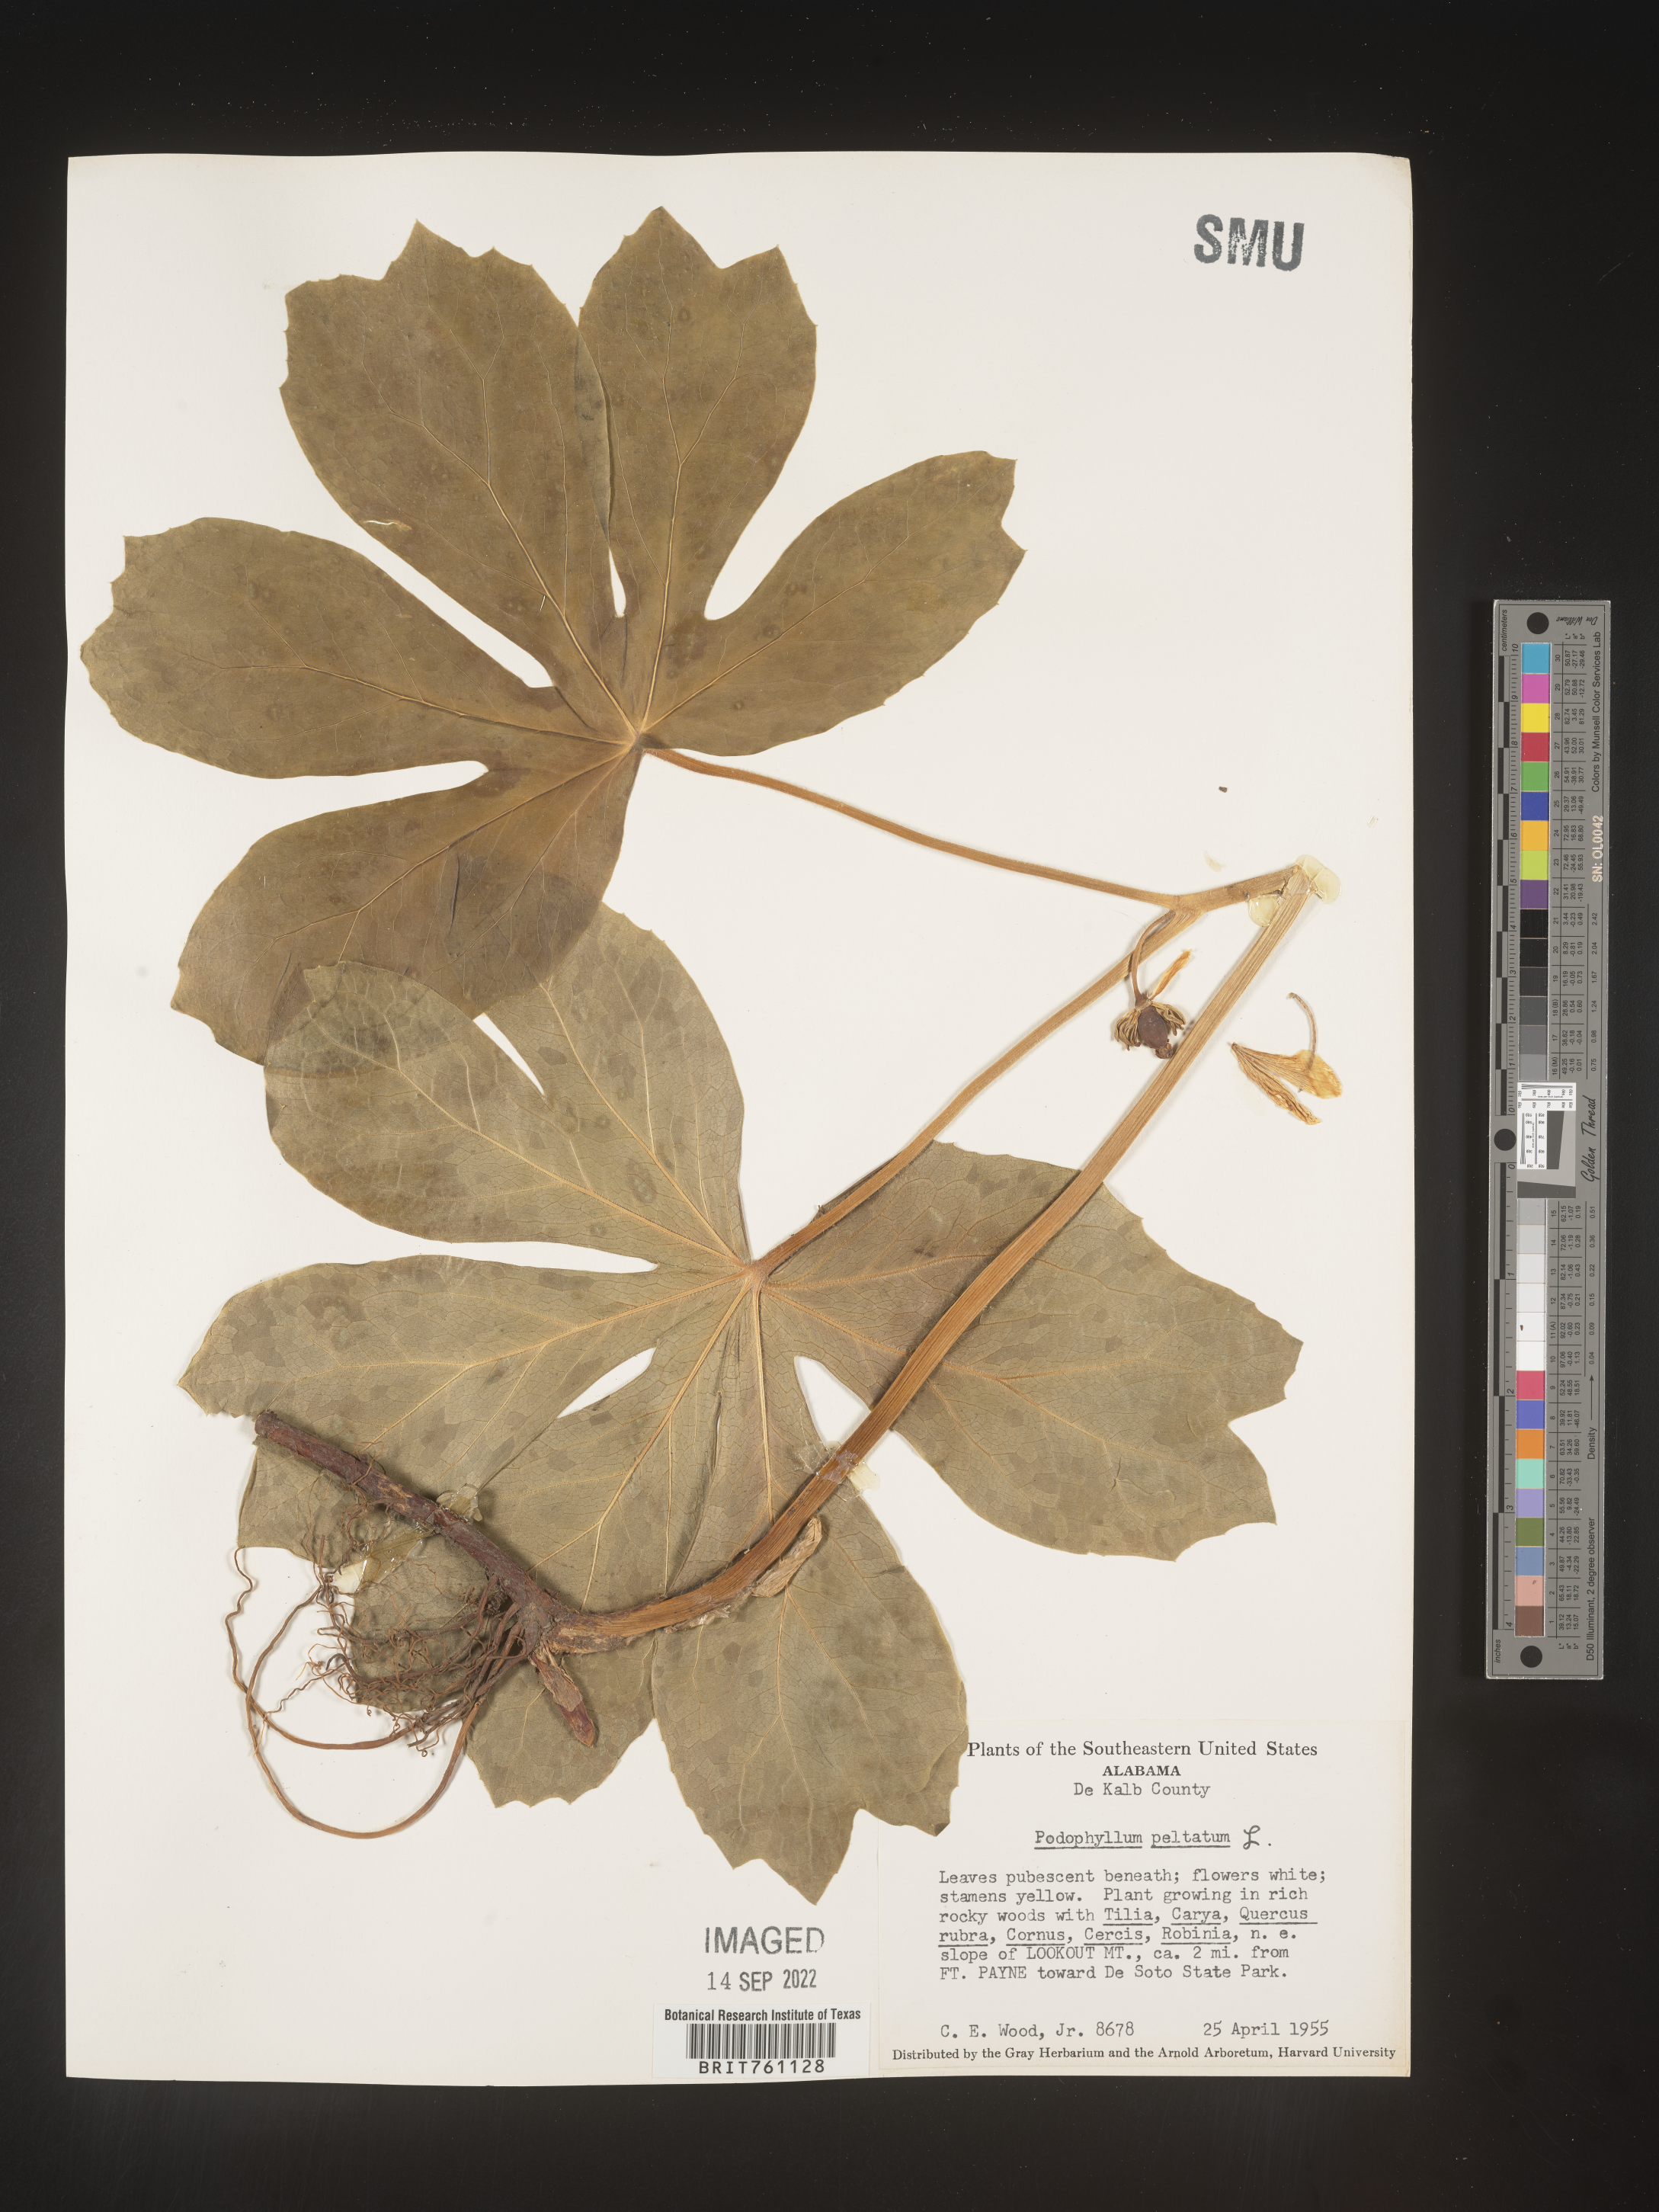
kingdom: Plantae
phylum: Tracheophyta
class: Magnoliopsida
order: Ranunculales
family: Berberidaceae
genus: Podophyllum
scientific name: Podophyllum peltatum
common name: Wild mandrake
